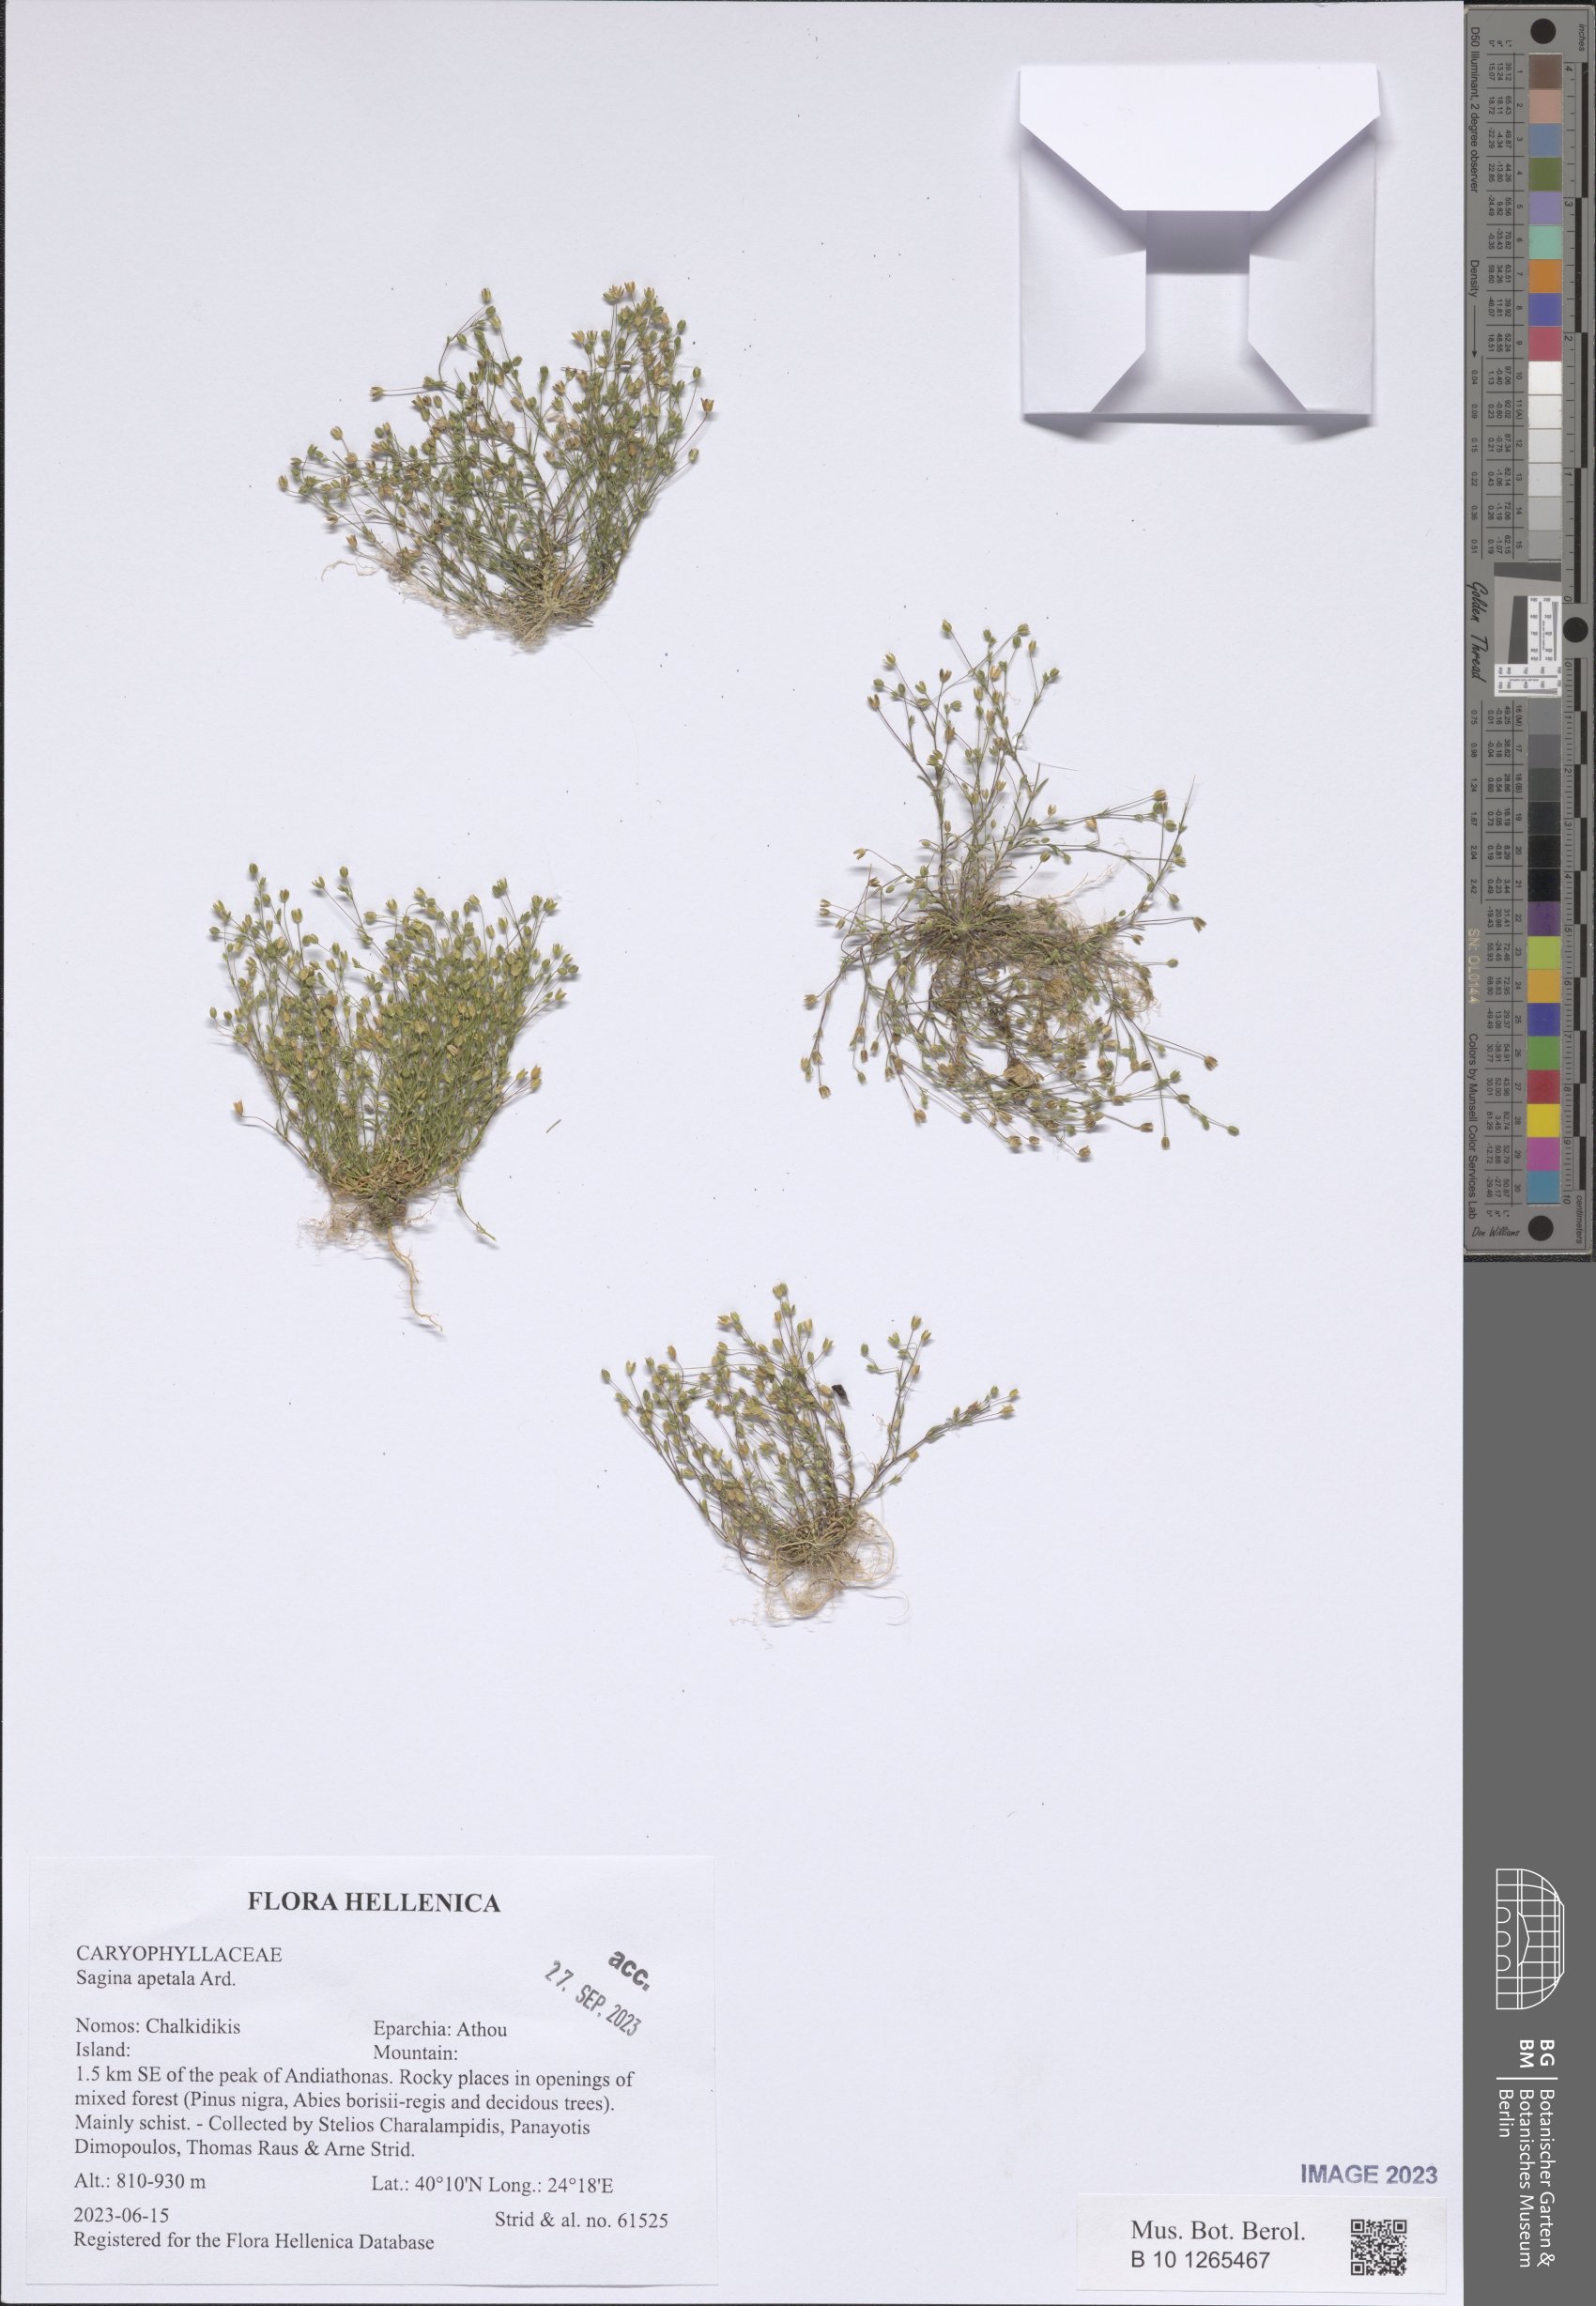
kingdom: Plantae
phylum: Tracheophyta
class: Magnoliopsida
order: Caryophyllales
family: Caryophyllaceae
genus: Sagina
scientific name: Sagina apetala
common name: Annual pearlwort
